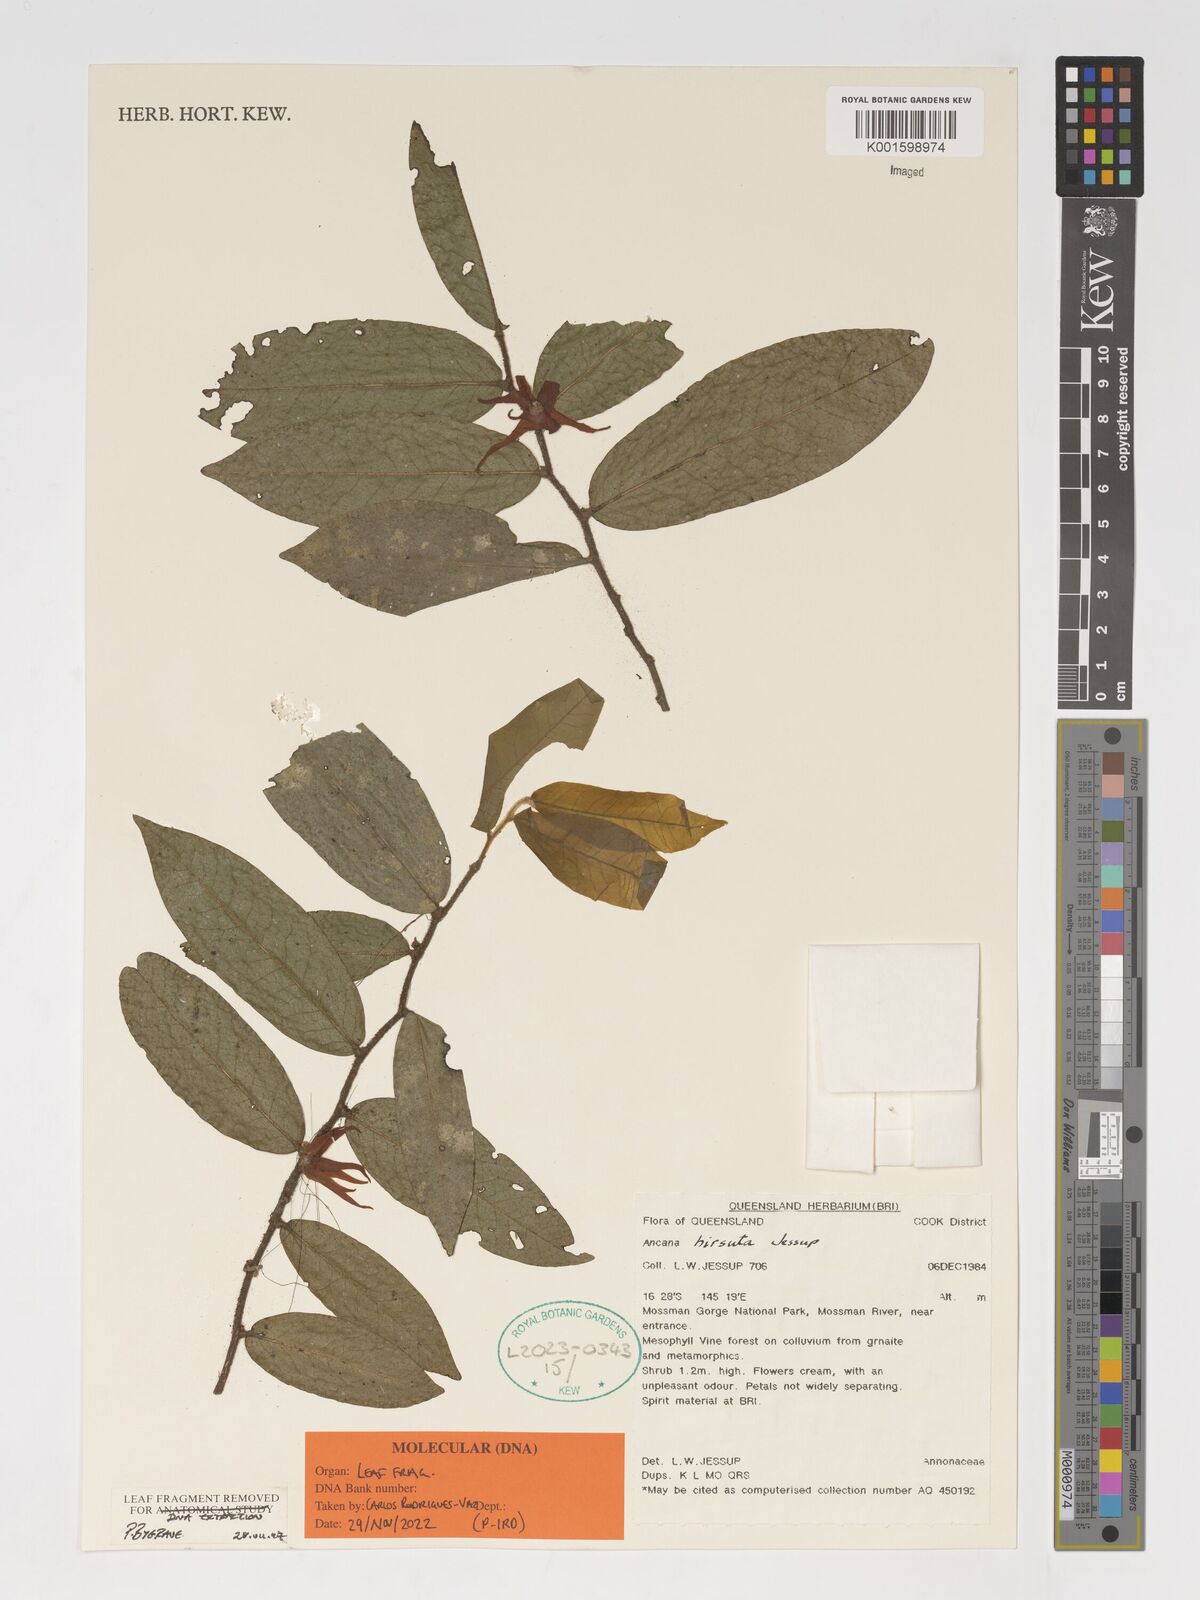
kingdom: Plantae
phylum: Tracheophyta
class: Magnoliopsida
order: Magnoliales
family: Annonaceae
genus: Meiogyne
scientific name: Meiogyne hirsuta
